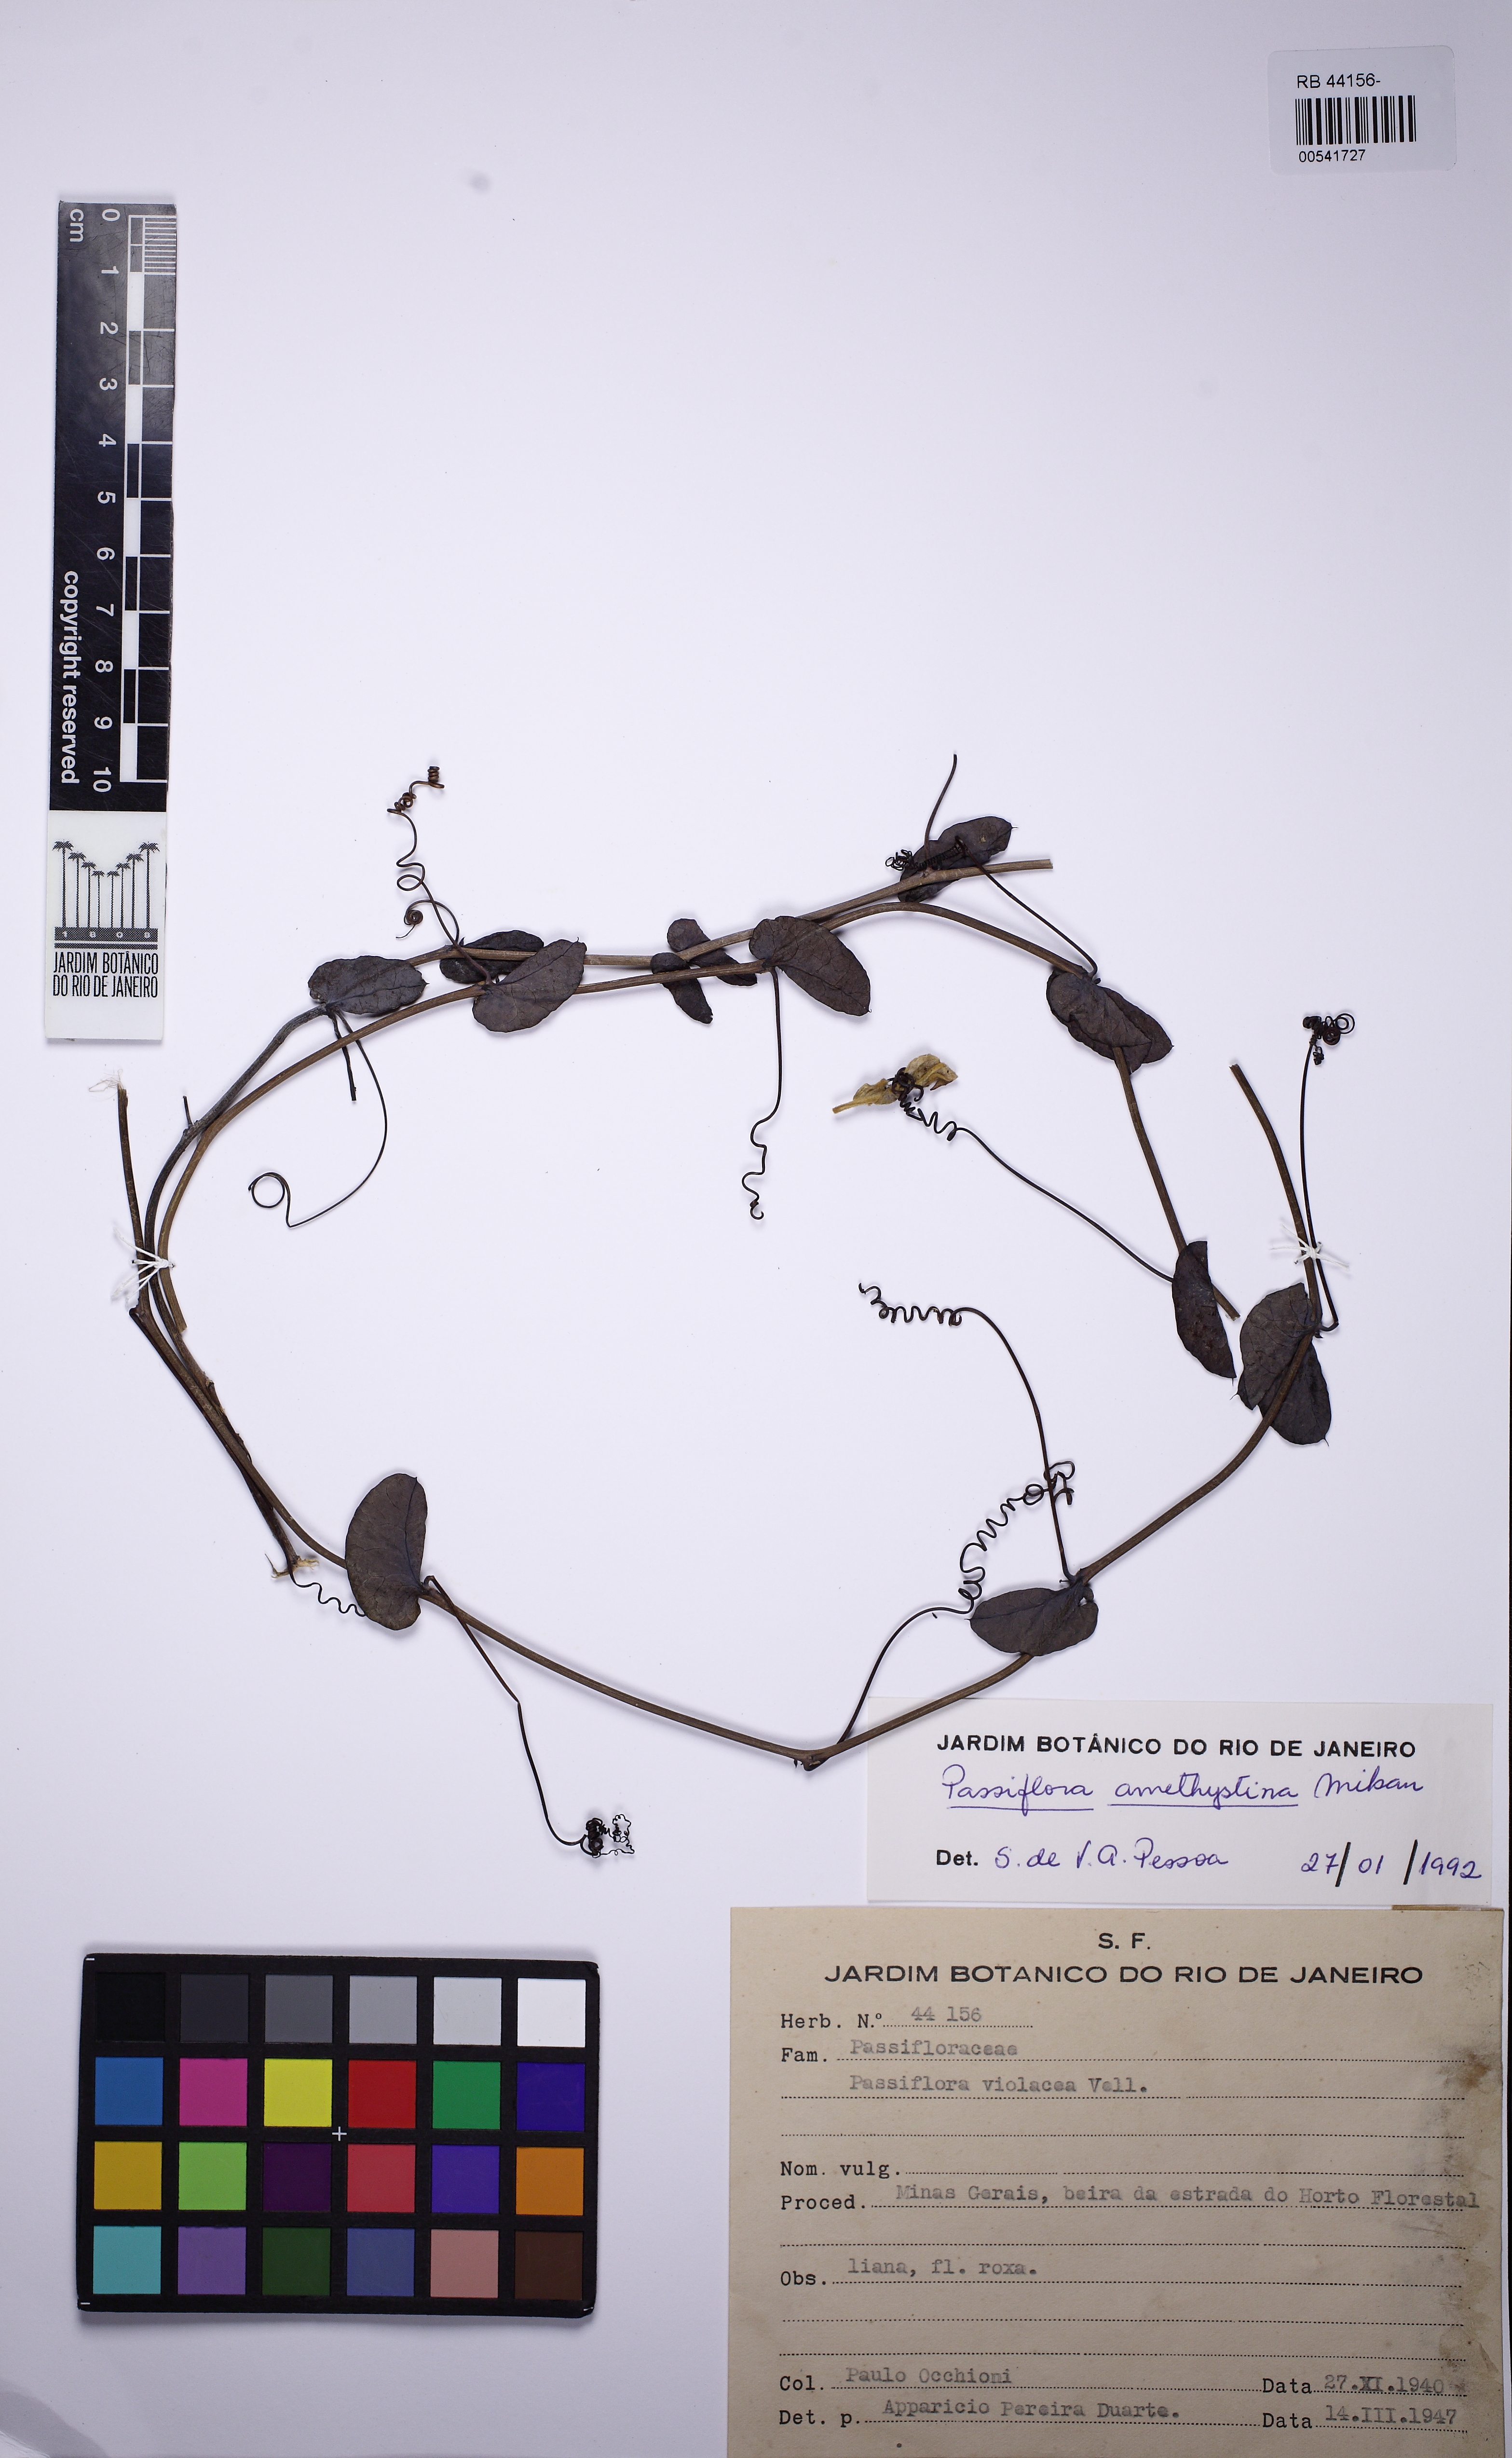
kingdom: Plantae
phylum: Tracheophyta
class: Magnoliopsida
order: Malpighiales
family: Passifloraceae
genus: Passiflora
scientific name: Passiflora amethystina
